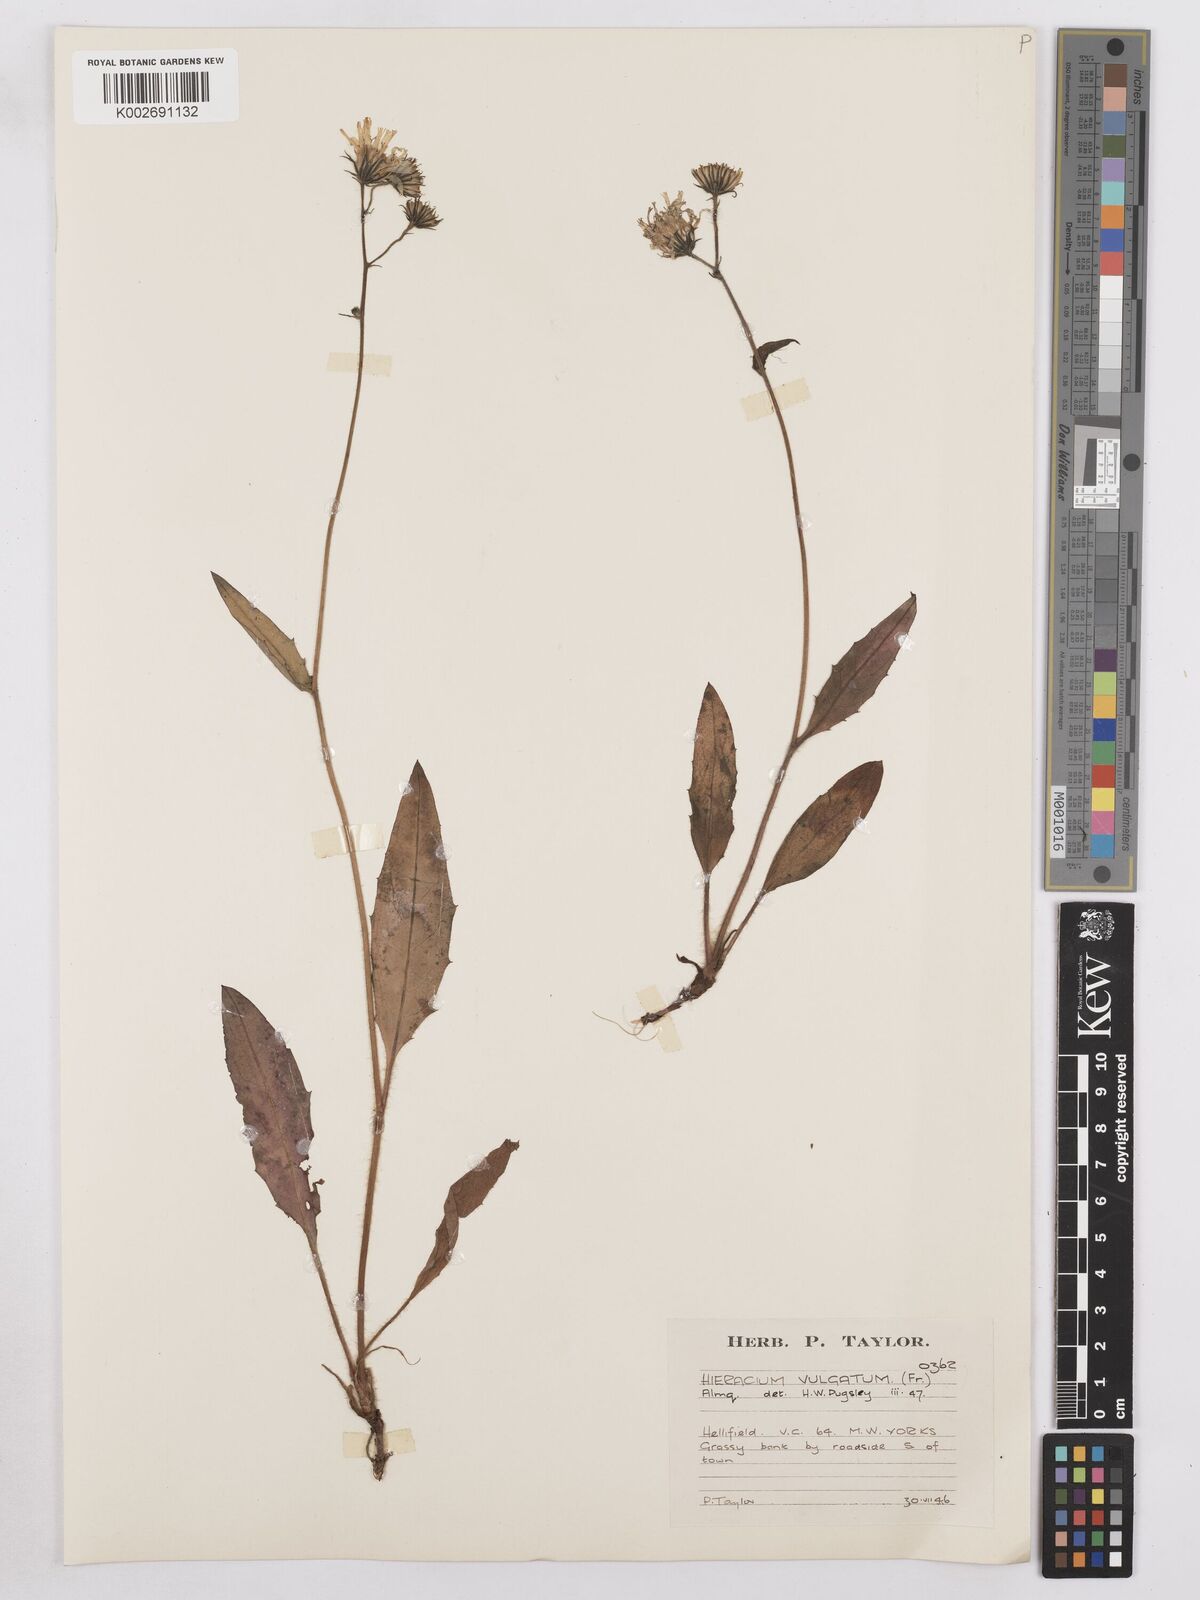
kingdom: Plantae
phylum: Tracheophyta
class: Magnoliopsida
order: Asterales
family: Asteraceae
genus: Hieracium
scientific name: Hieracium lachenalii
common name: Common hawkweed
